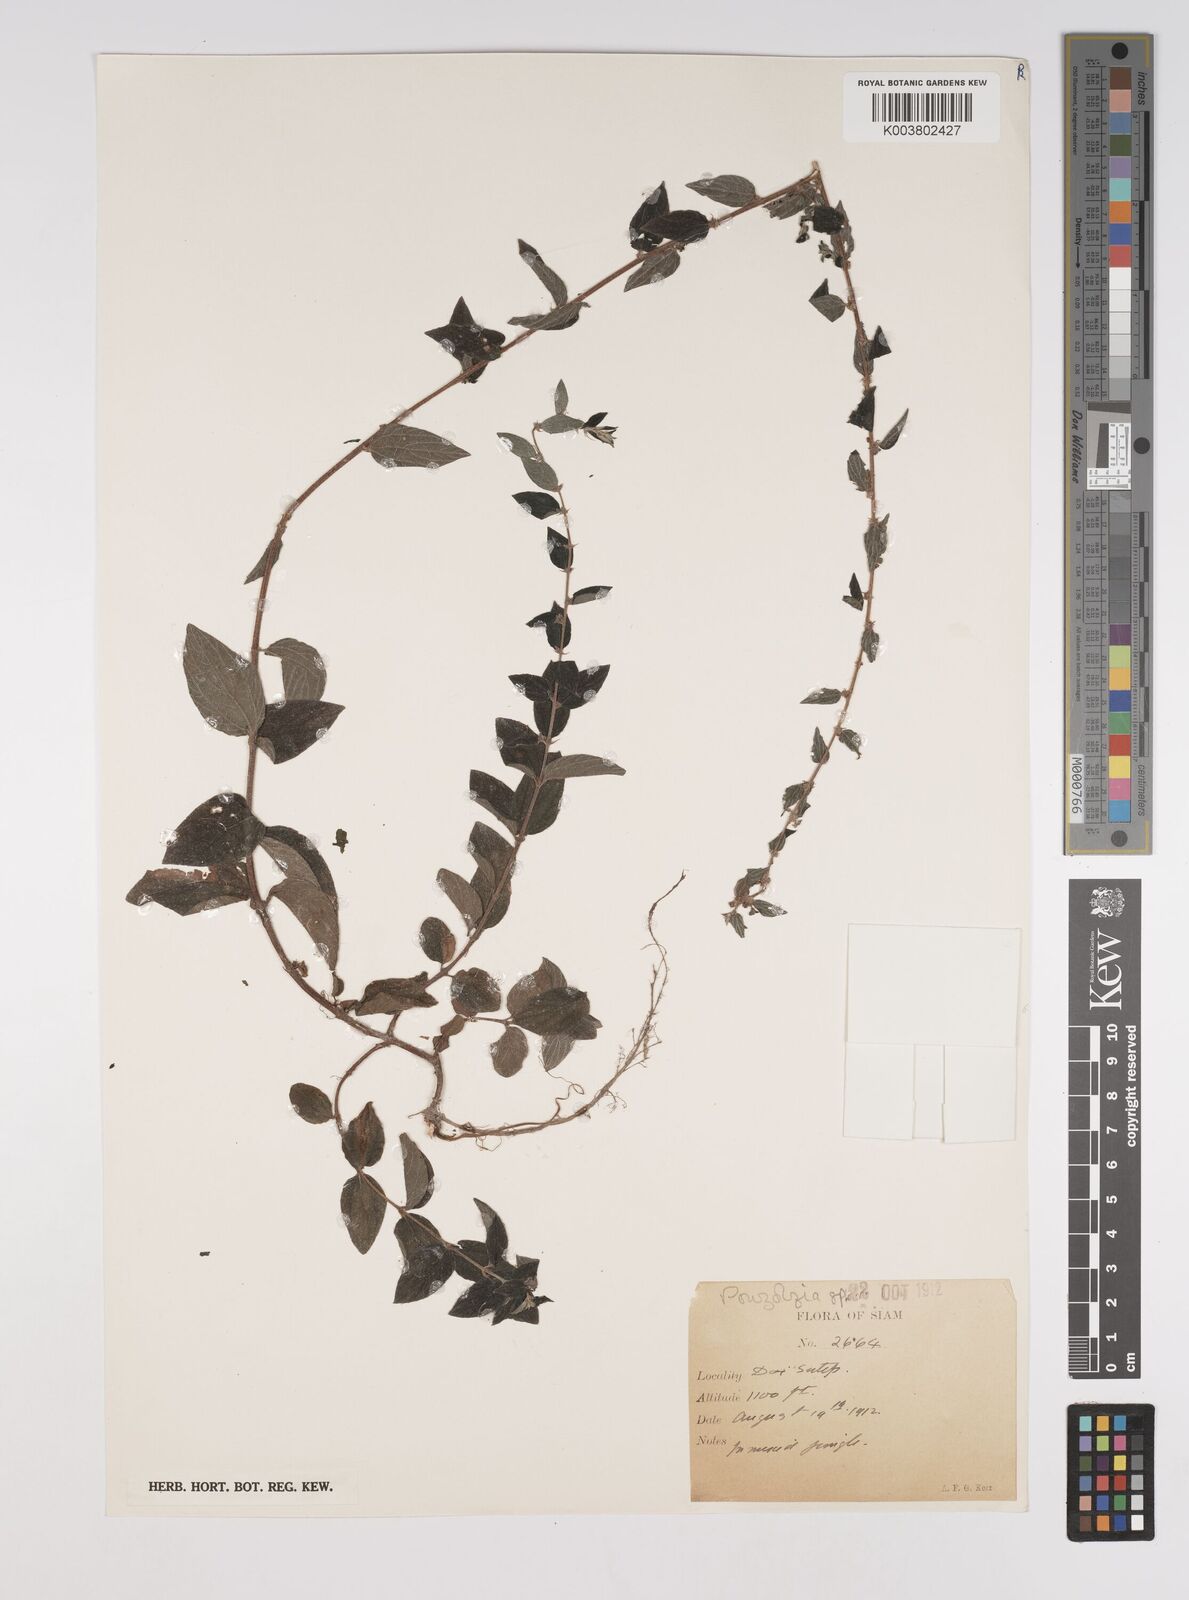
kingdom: Plantae
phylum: Tracheophyta
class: Magnoliopsida
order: Rosales
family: Urticaceae
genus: Pouzolzia
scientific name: Pouzolzia zeylanica
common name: Graceful pouzolzsbush
